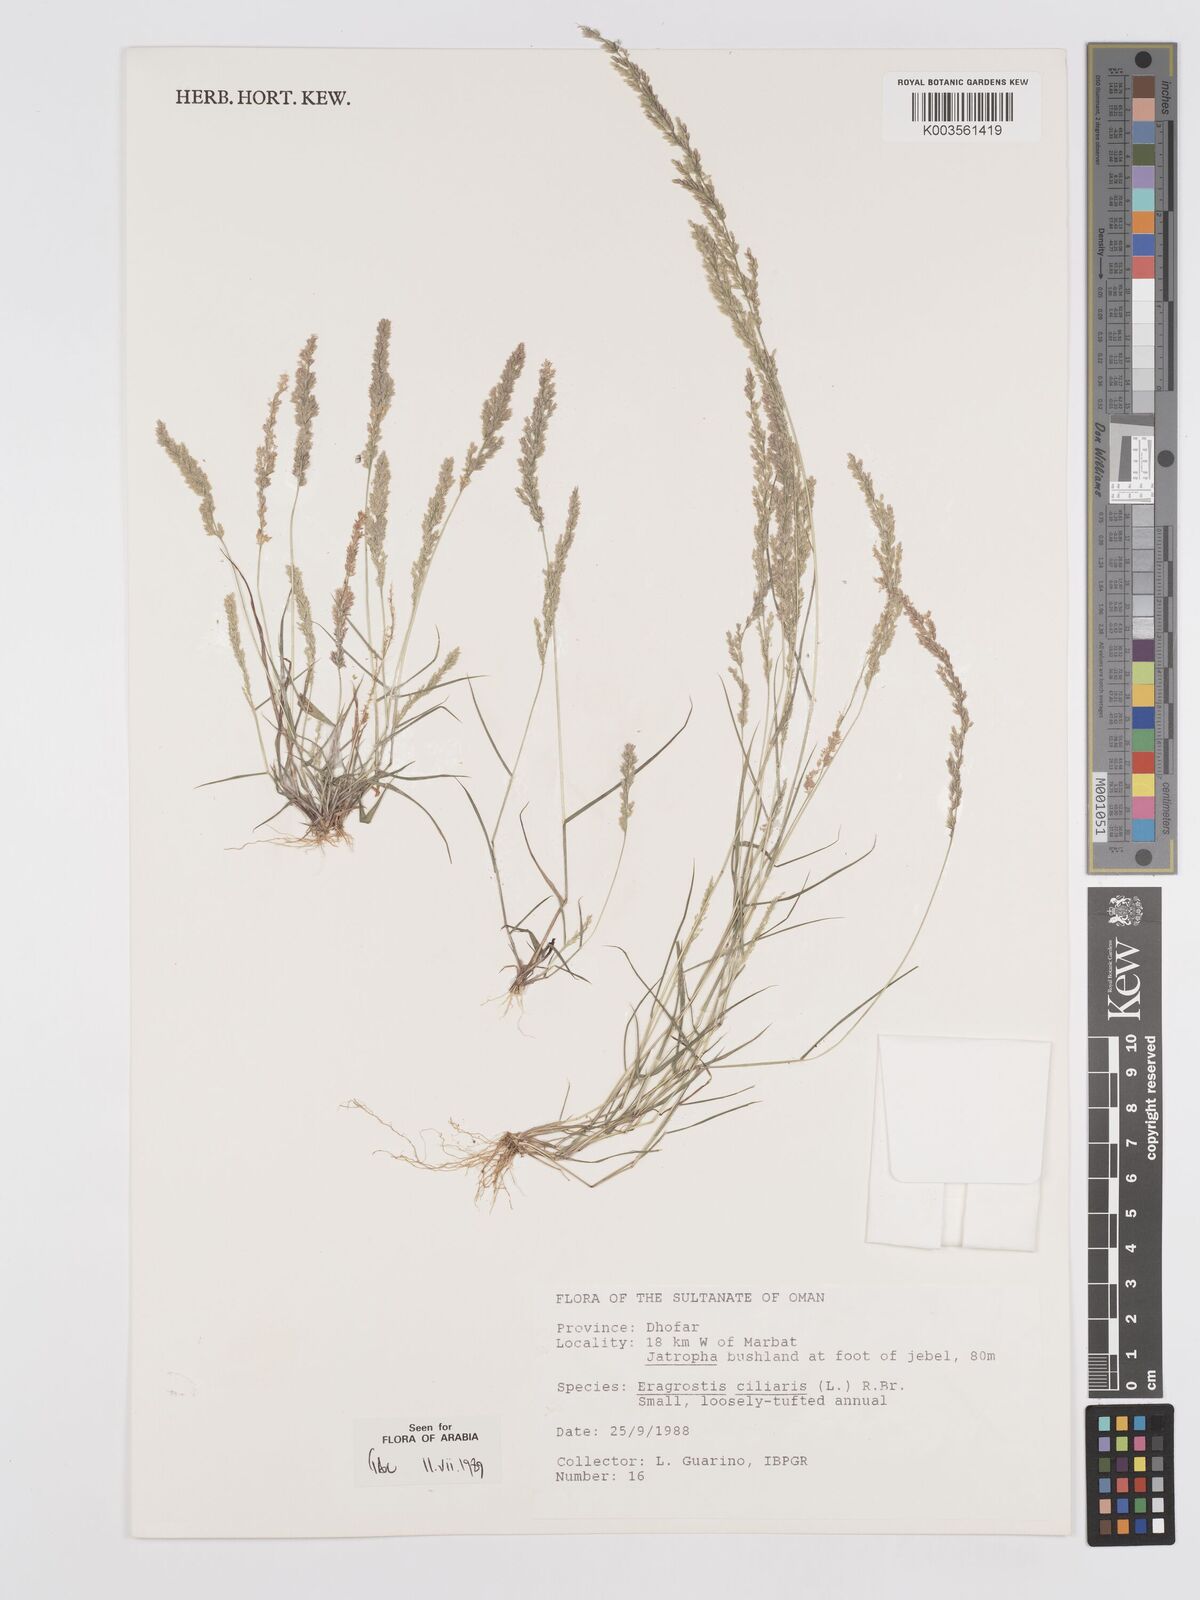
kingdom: Plantae
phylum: Tracheophyta
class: Liliopsida
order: Poales
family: Poaceae
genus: Eragrostis
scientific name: Eragrostis ciliaris
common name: Gophertail lovegrass
